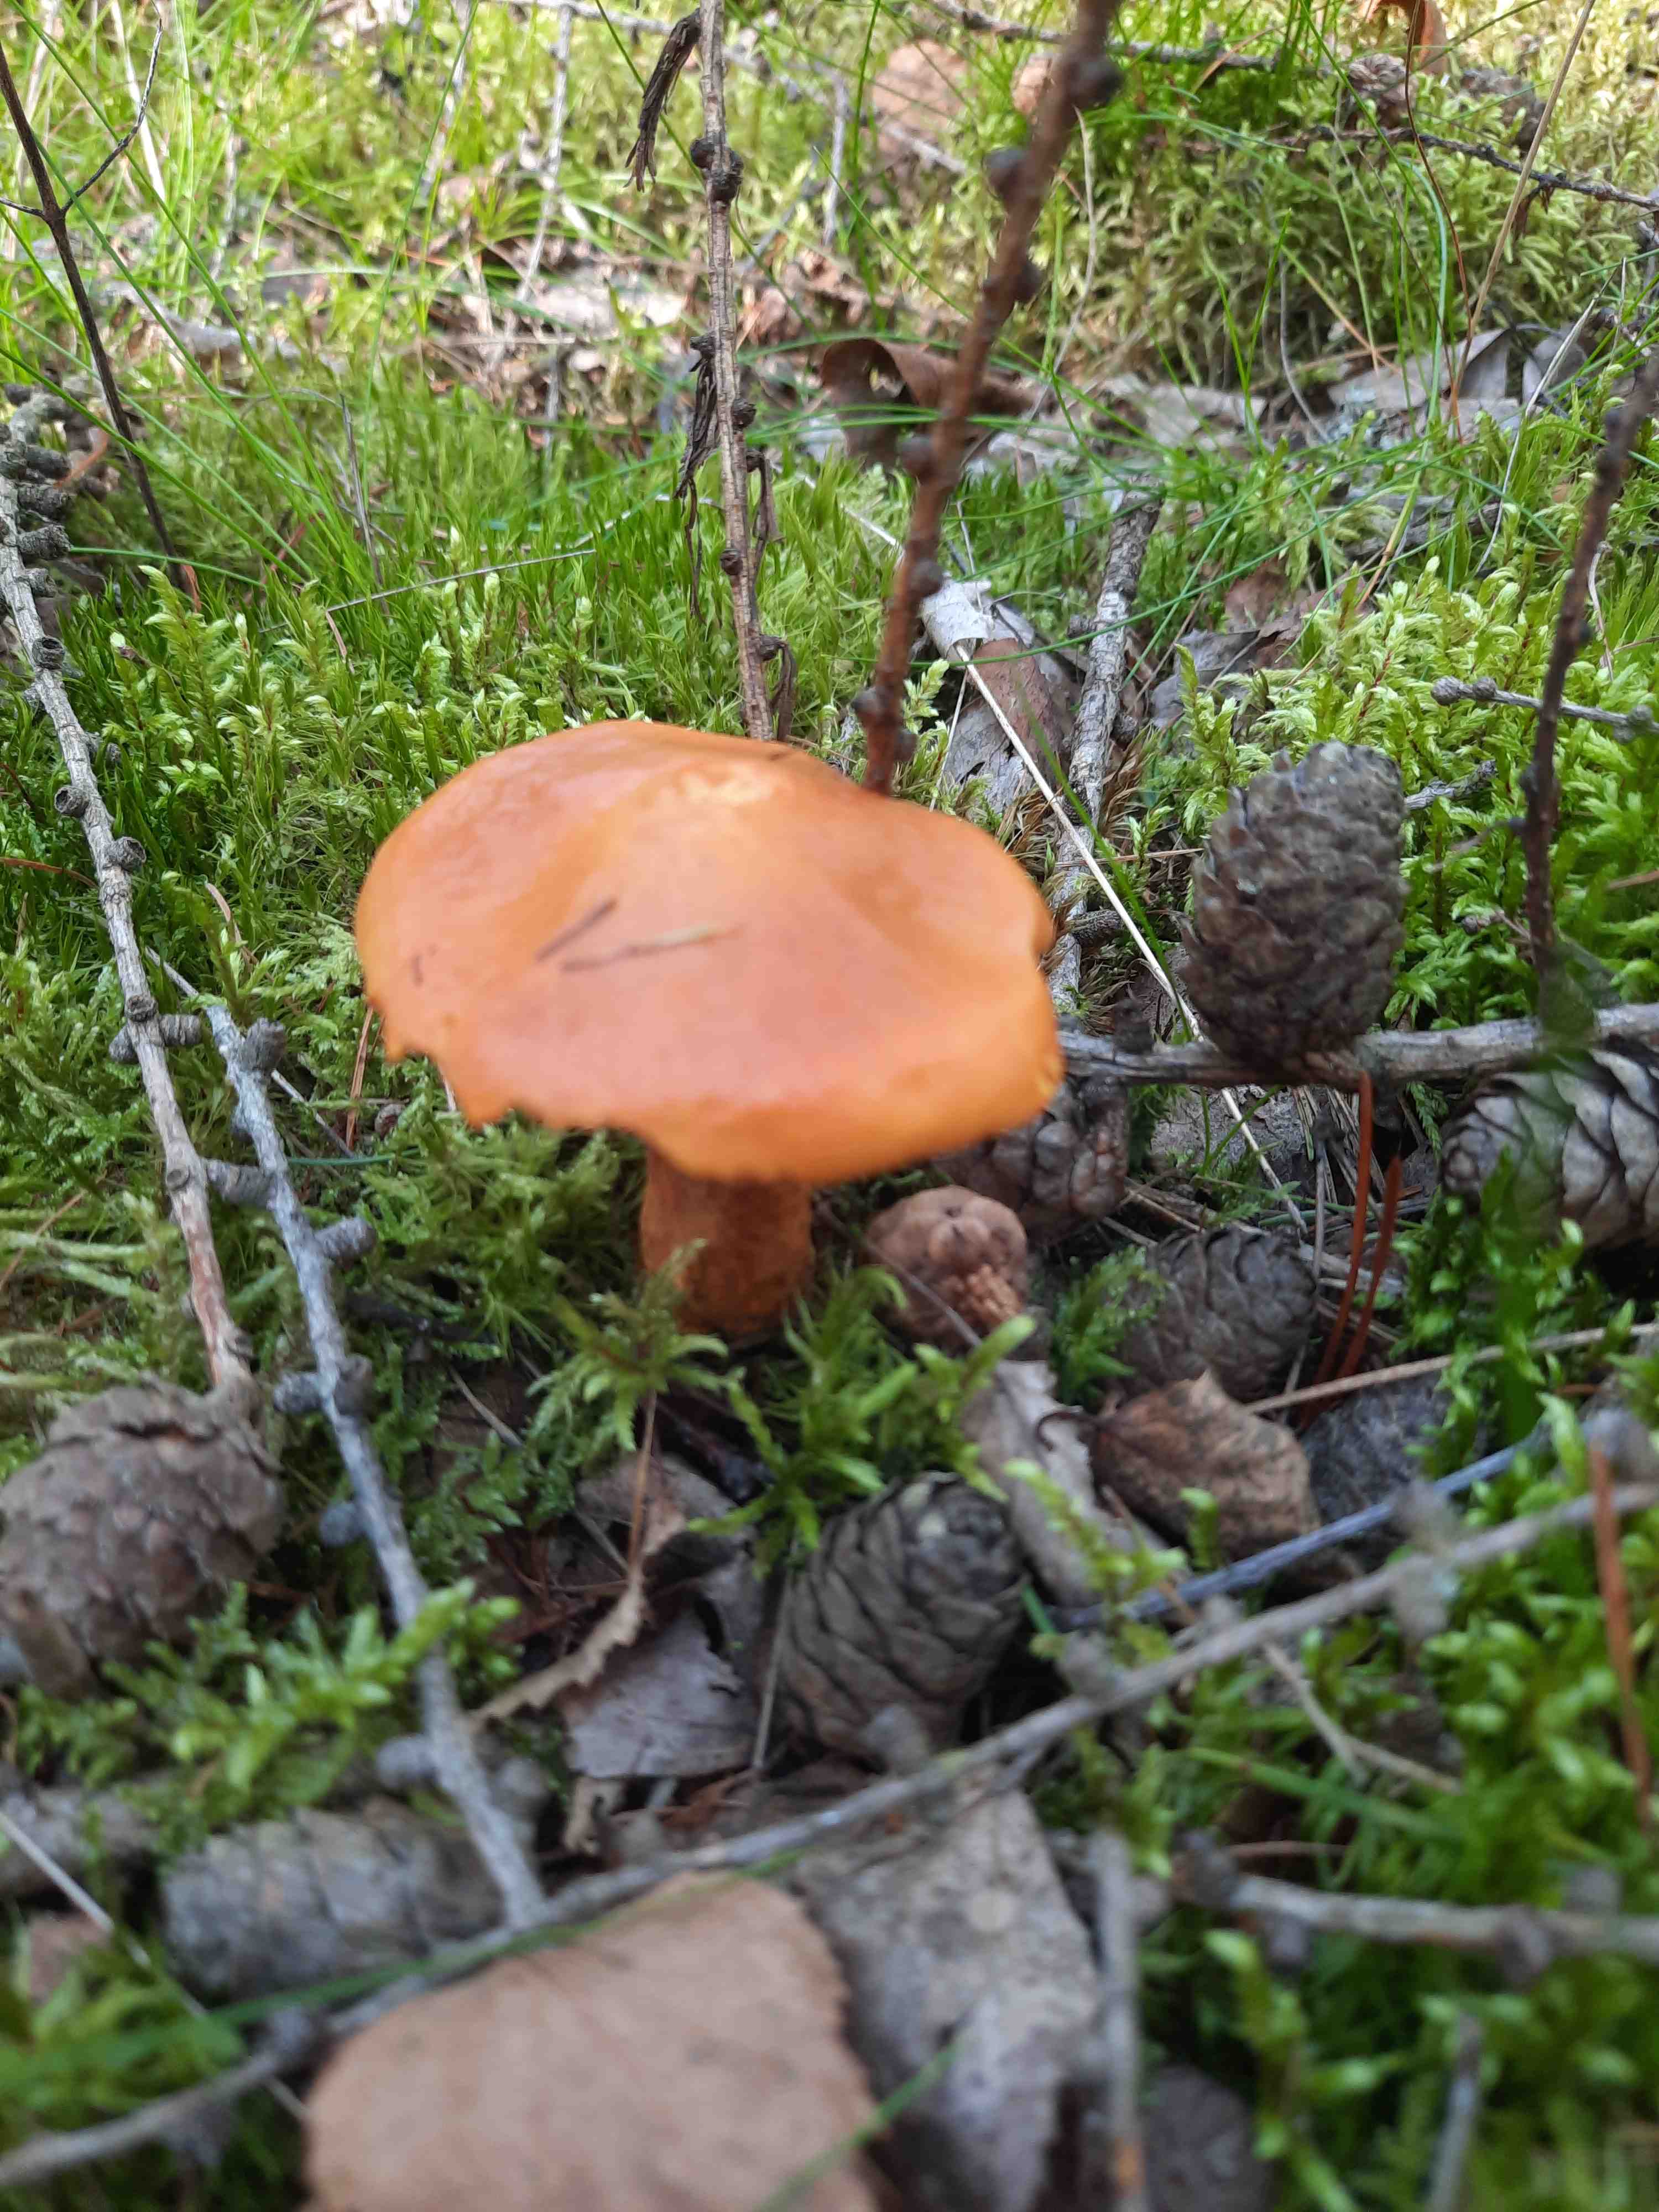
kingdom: Fungi
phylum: Basidiomycota
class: Agaricomycetes
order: Boletales
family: Suillaceae
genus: Suillus
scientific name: Suillus grevillei
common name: lærke-slimrørhat
